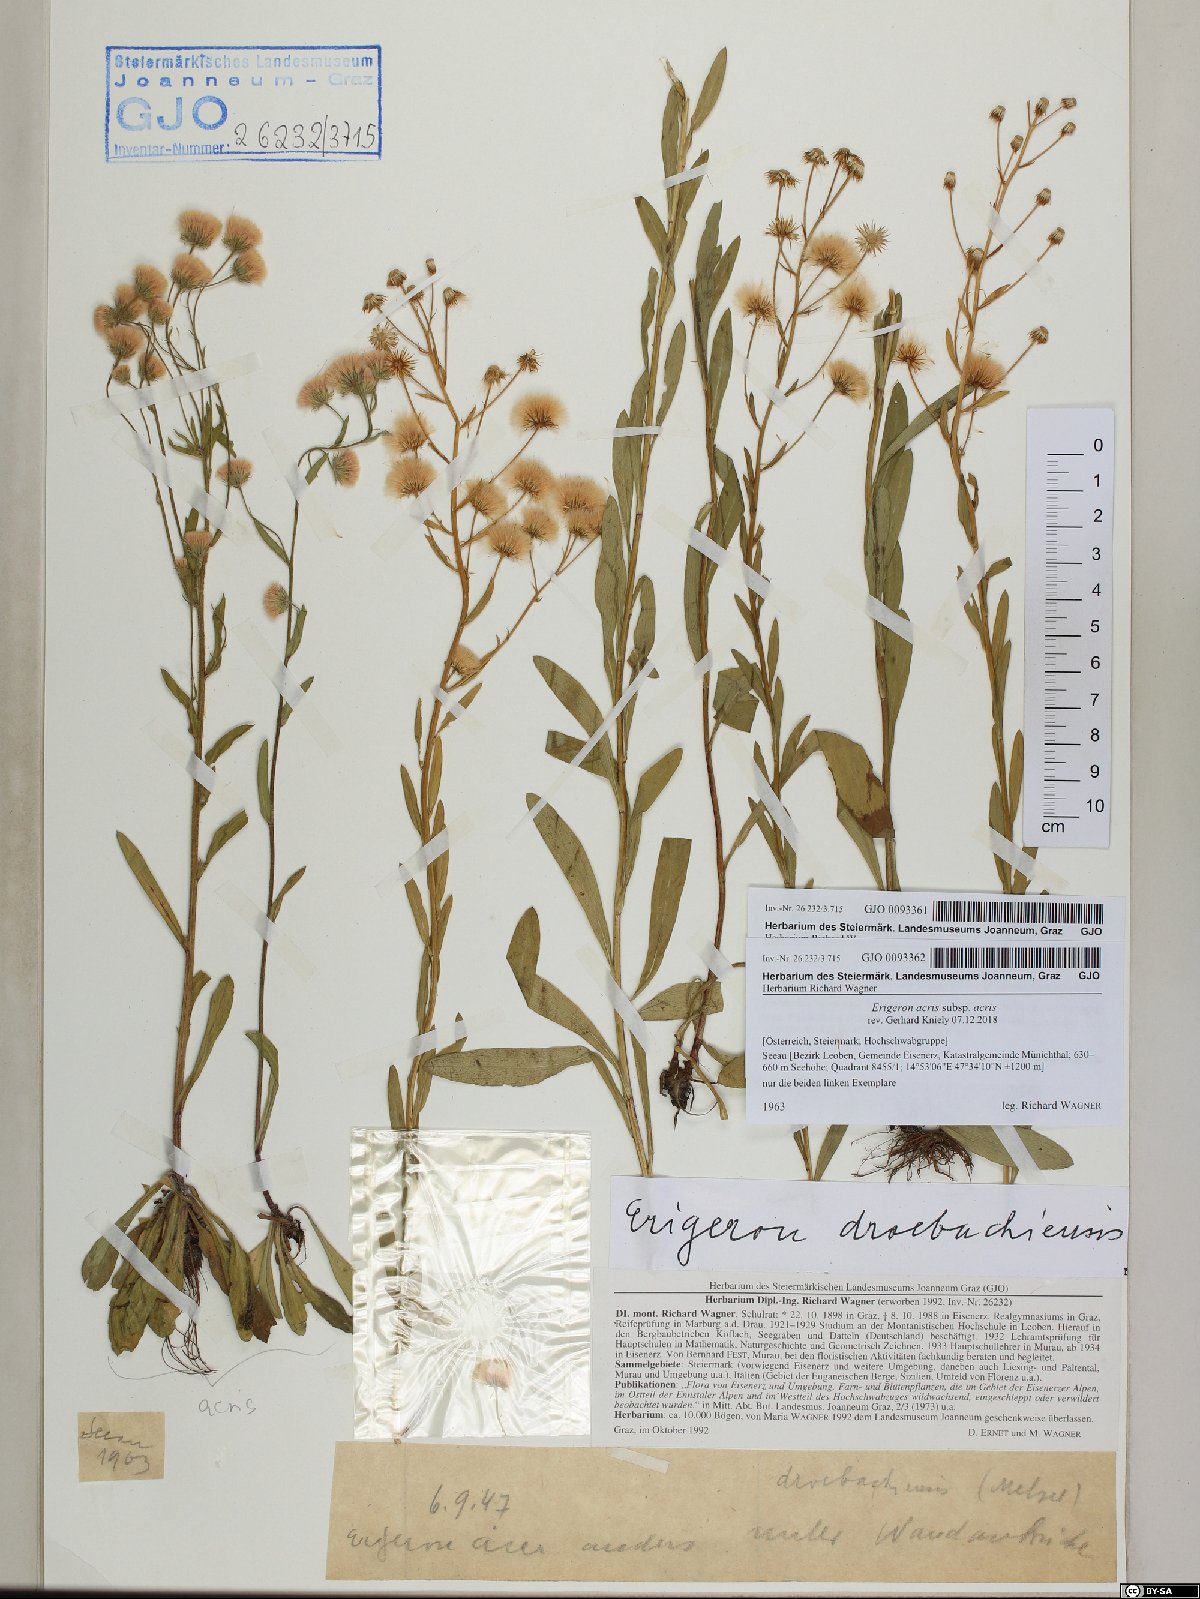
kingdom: Plantae
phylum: Tracheophyta
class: Magnoliopsida
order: Asterales
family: Asteraceae
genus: Erigeron
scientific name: Erigeron angulosus
